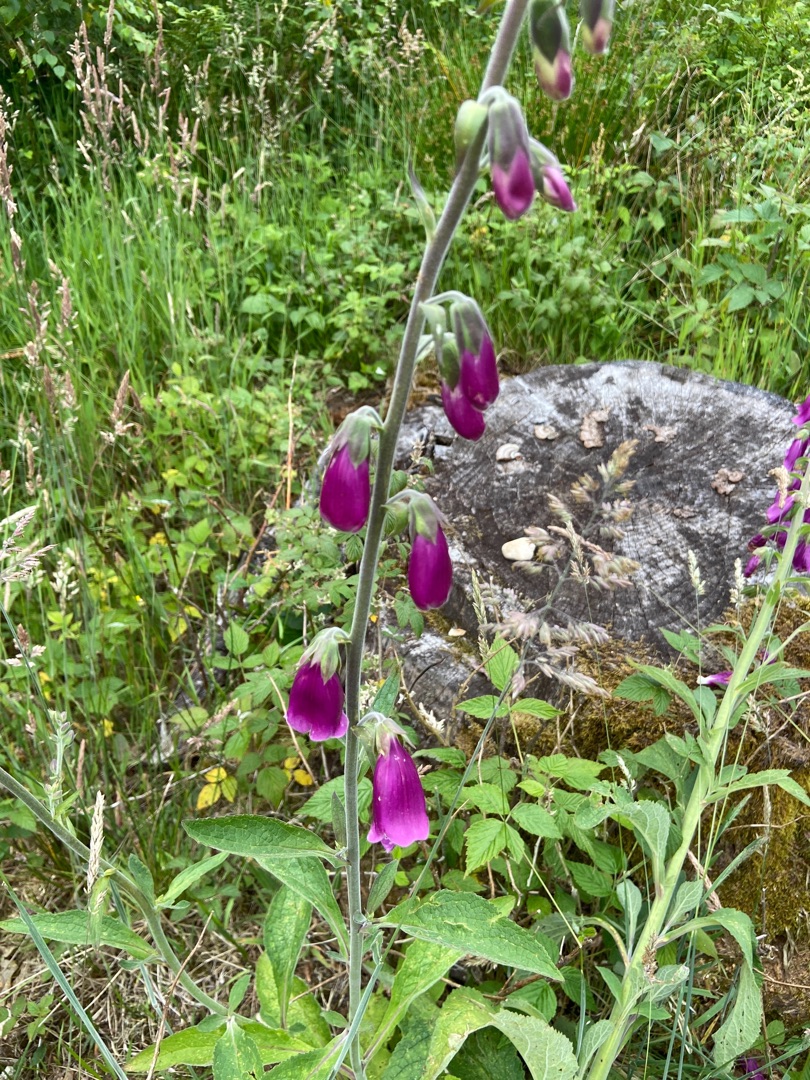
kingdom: Plantae
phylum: Tracheophyta
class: Magnoliopsida
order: Lamiales
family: Plantaginaceae
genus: Digitalis
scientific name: Digitalis purpurea
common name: Almindelig fingerbøl
